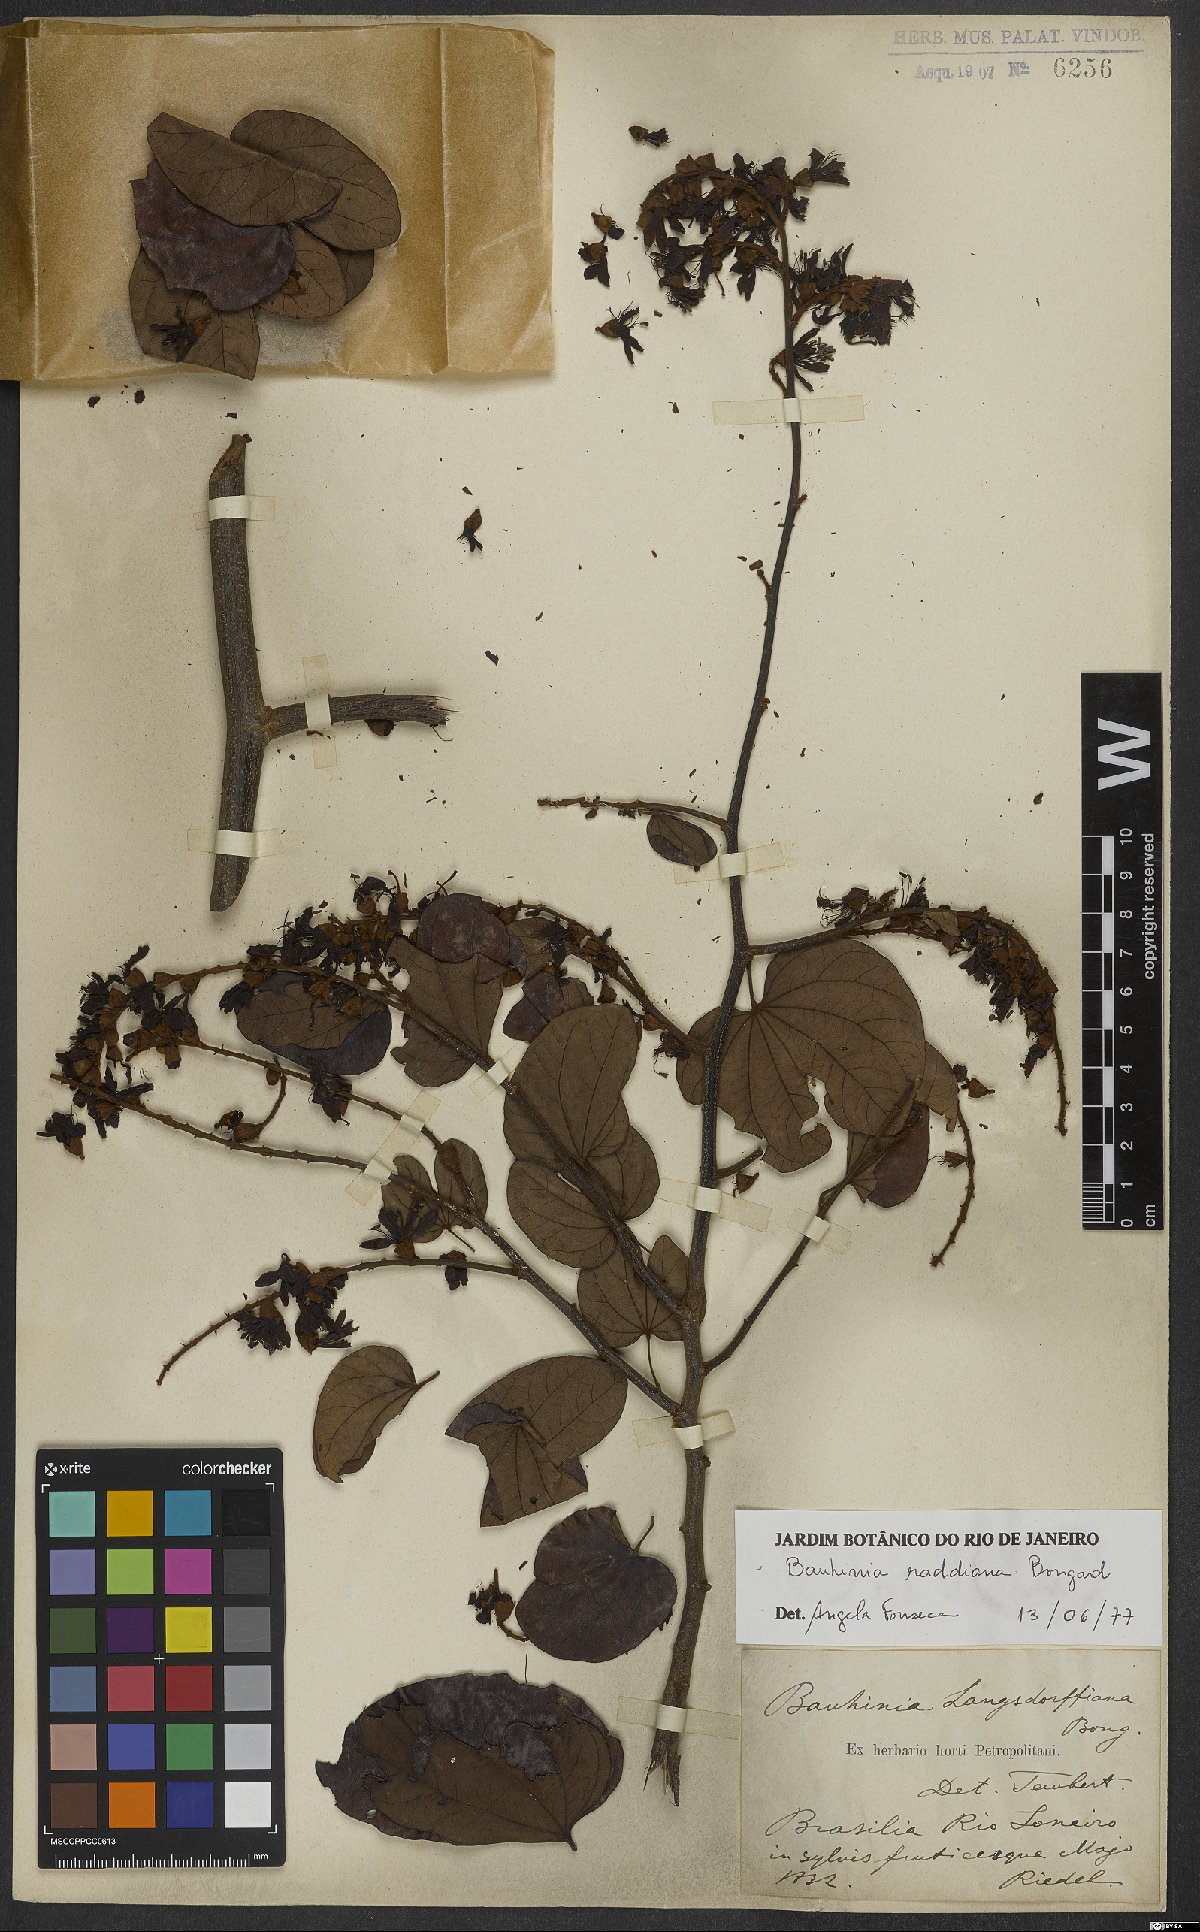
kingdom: Plantae
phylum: Tracheophyta
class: Magnoliopsida
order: Fabales
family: Fabaceae
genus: Schnella
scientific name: Schnella macrostachya
